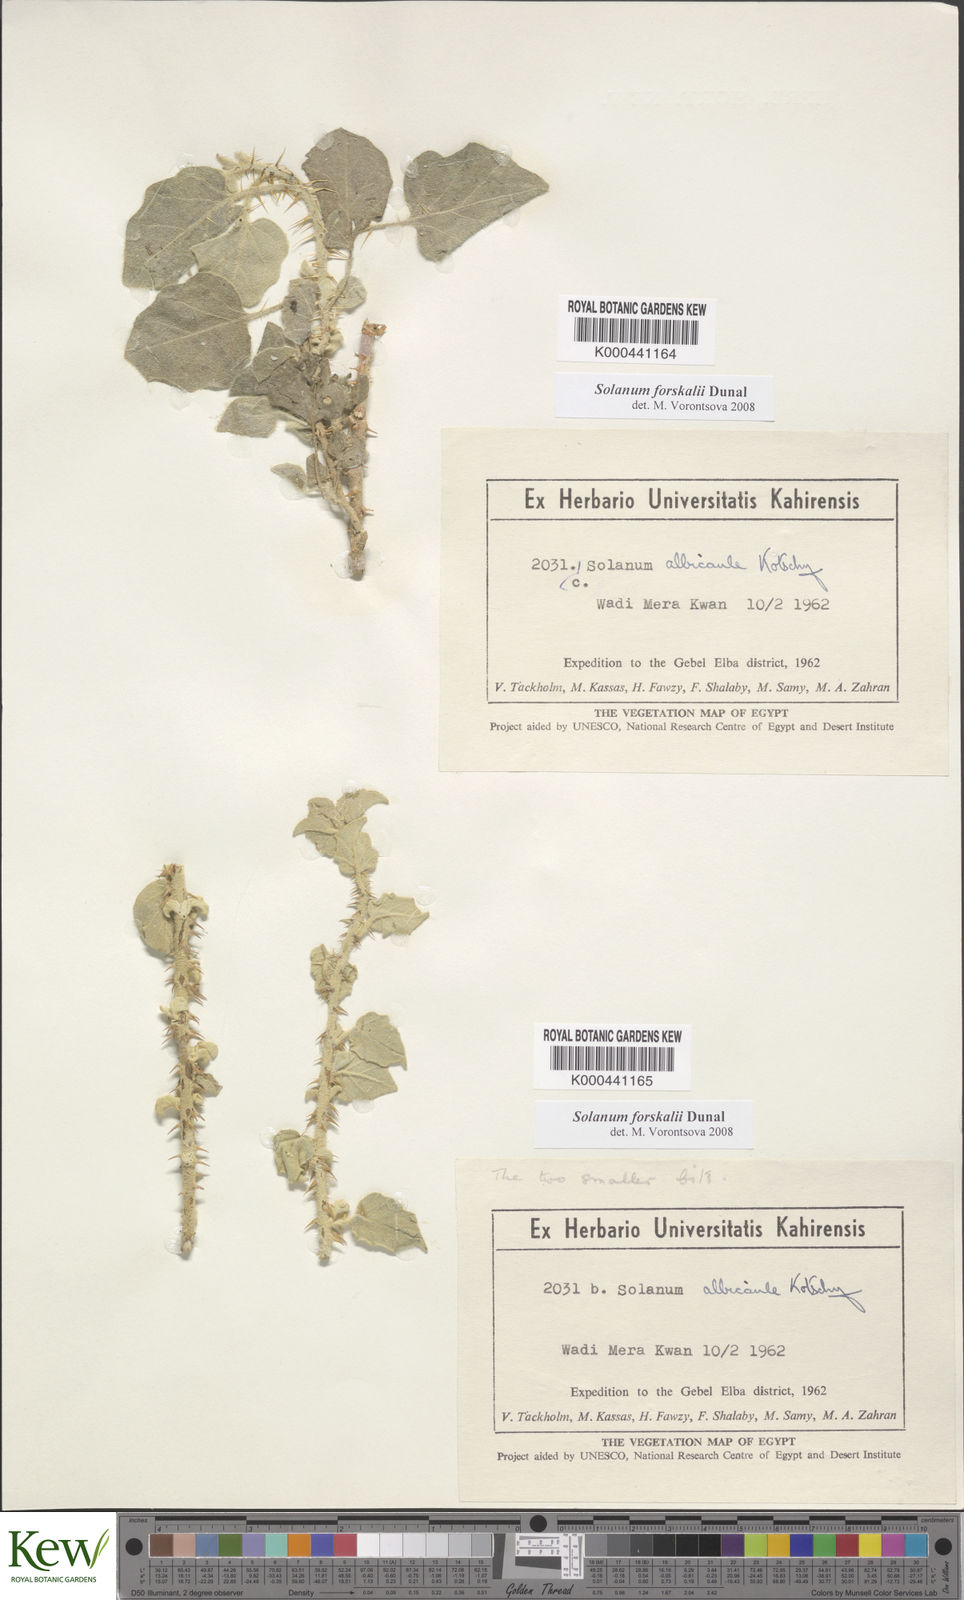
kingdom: Plantae
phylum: Tracheophyta
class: Magnoliopsida
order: Solanales
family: Solanaceae
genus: Solanum
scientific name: Solanum
